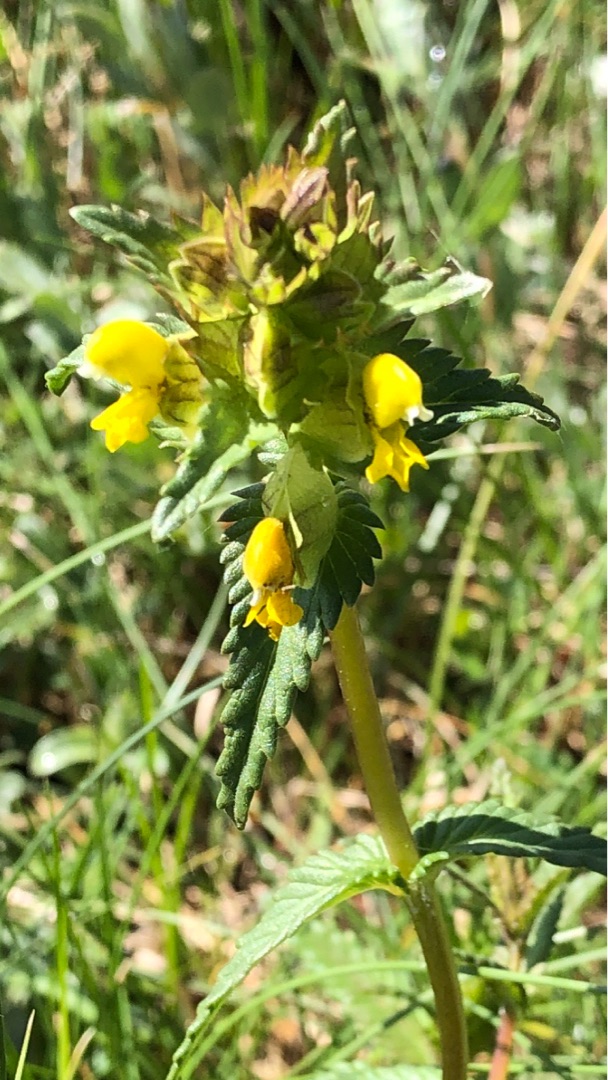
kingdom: Plantae
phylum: Tracheophyta
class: Magnoliopsida
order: Lamiales
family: Orobanchaceae
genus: Rhinanthus
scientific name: Rhinanthus minor
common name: Liden skjaller
